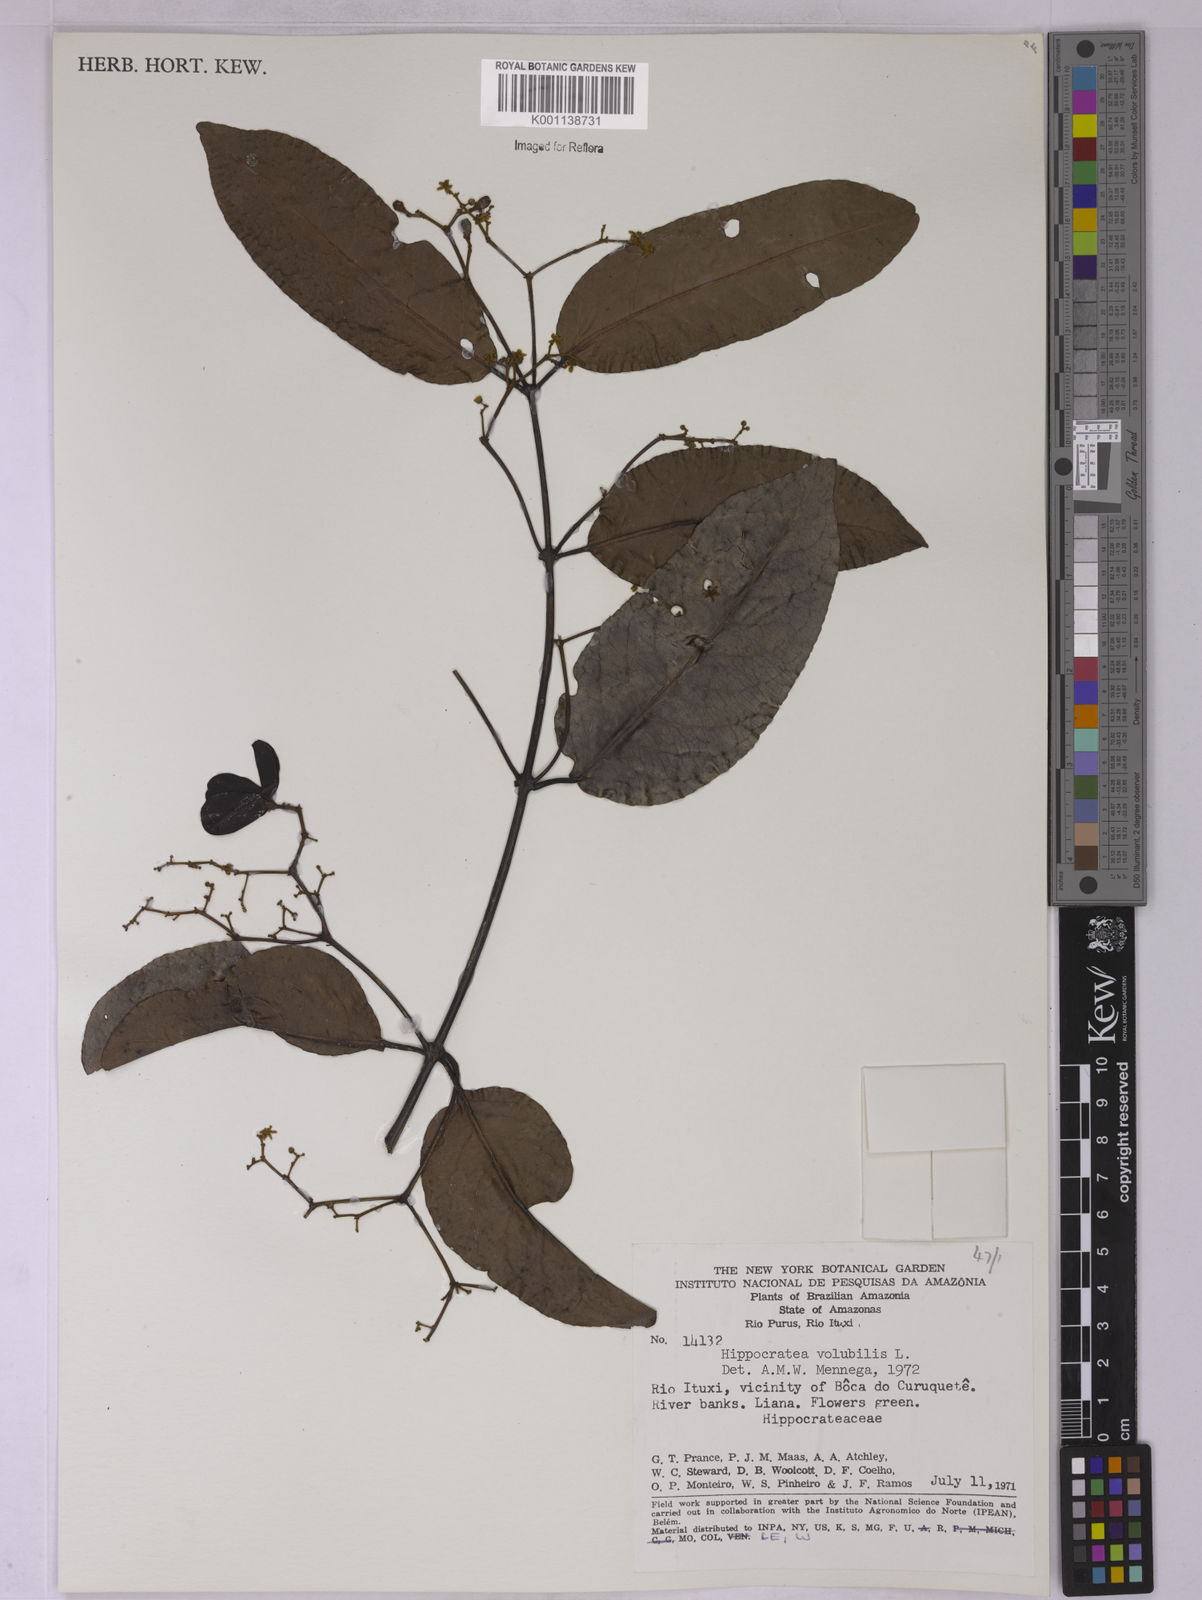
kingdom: Plantae
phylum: Tracheophyta
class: Magnoliopsida
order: Celastrales
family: Celastraceae
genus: Hippocratea
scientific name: Hippocratea volubilis
